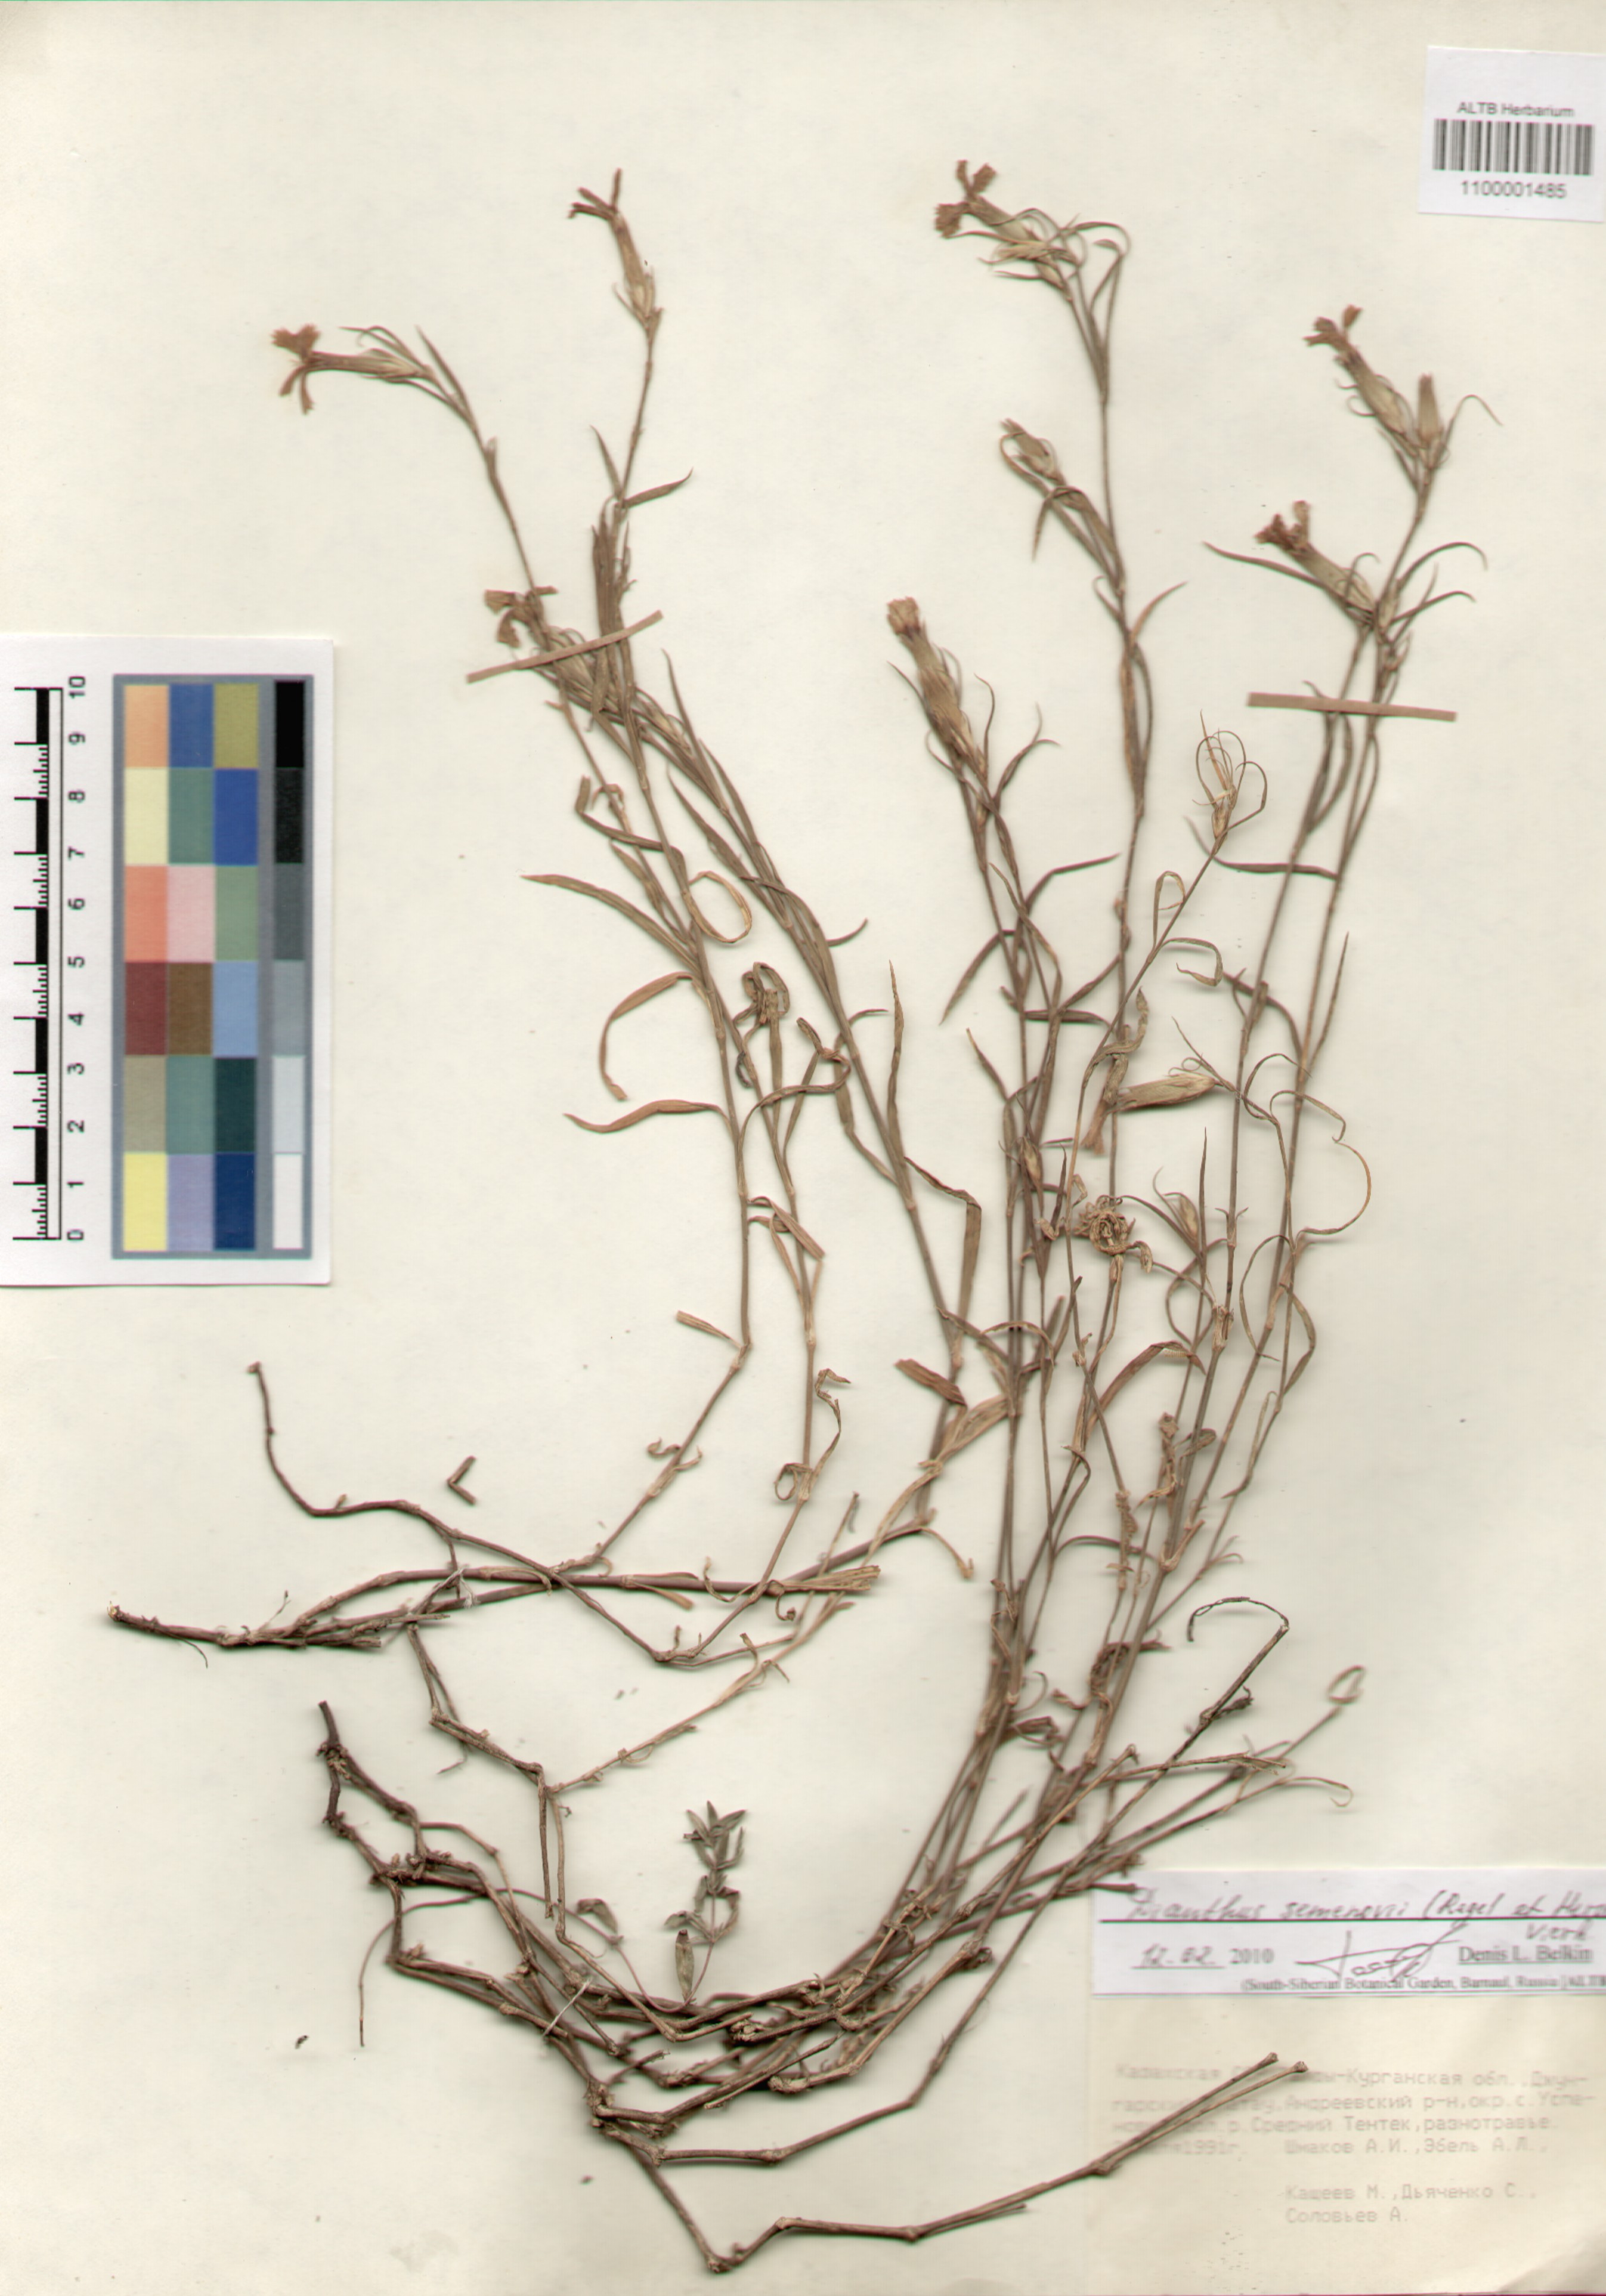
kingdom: Plantae
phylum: Tracheophyta
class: Magnoliopsida
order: Caryophyllales
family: Caryophyllaceae
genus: Dianthus
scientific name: Dianthus semenovii
